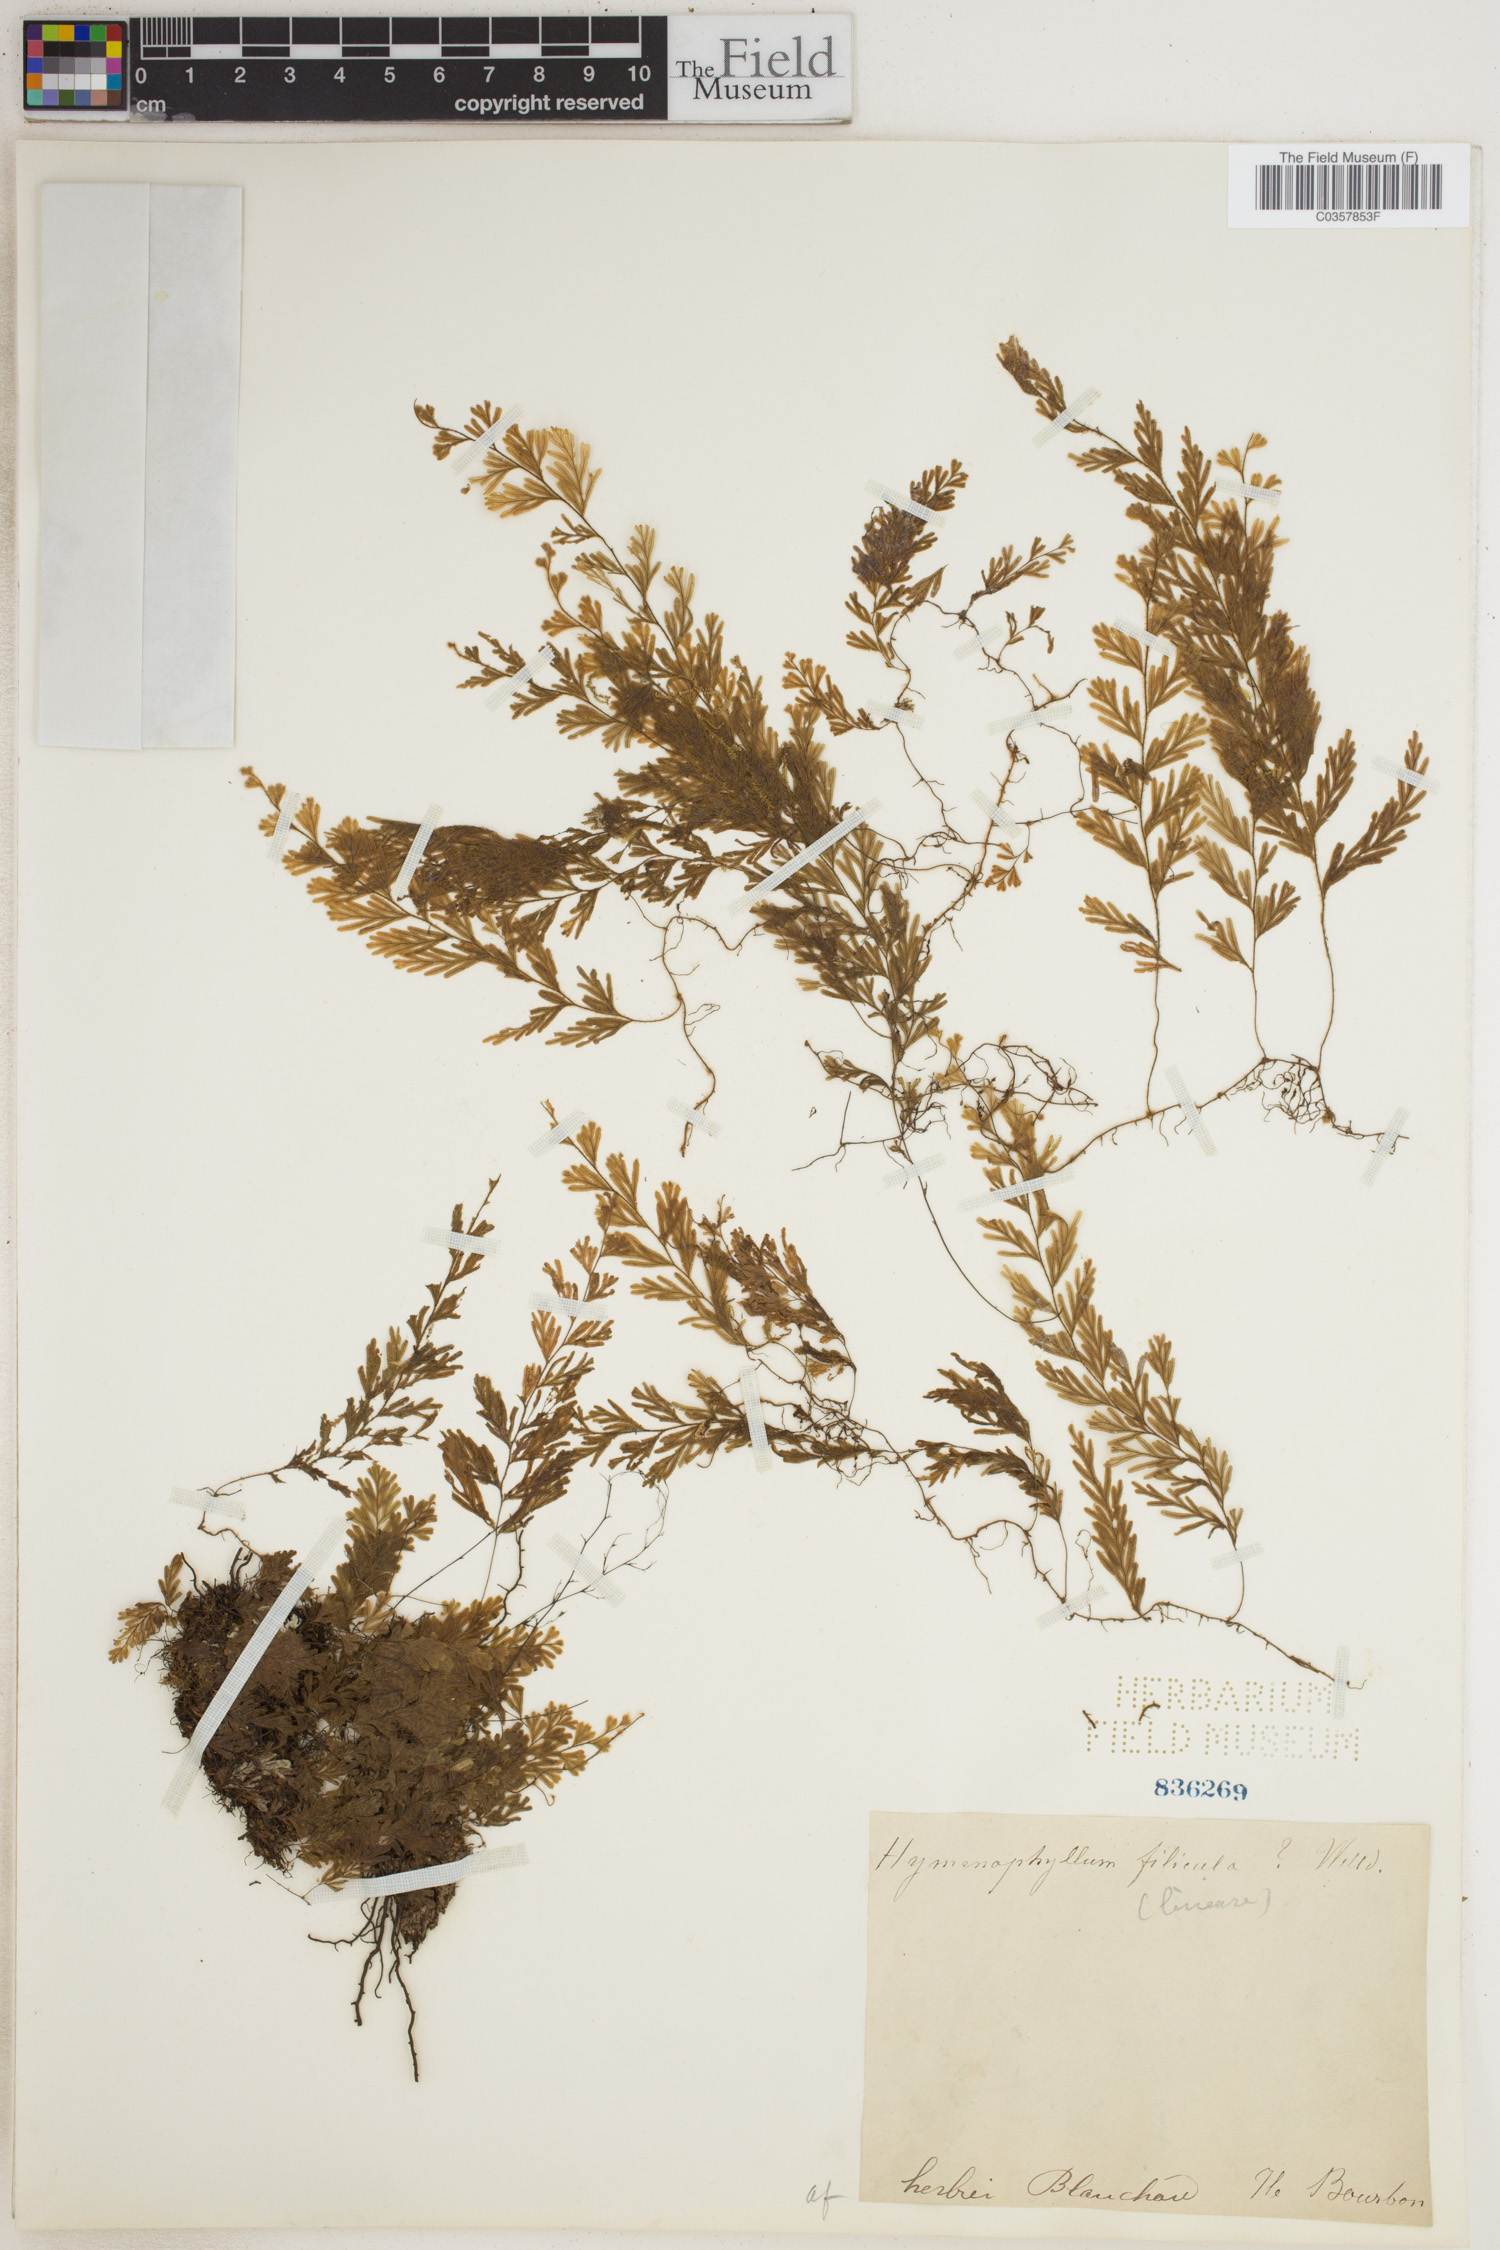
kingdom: Plantae
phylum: Tracheophyta
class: Polypodiopsida
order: Hymenophyllales
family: Hymenophyllaceae
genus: Hymenophyllum
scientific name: Hymenophyllum lineare
